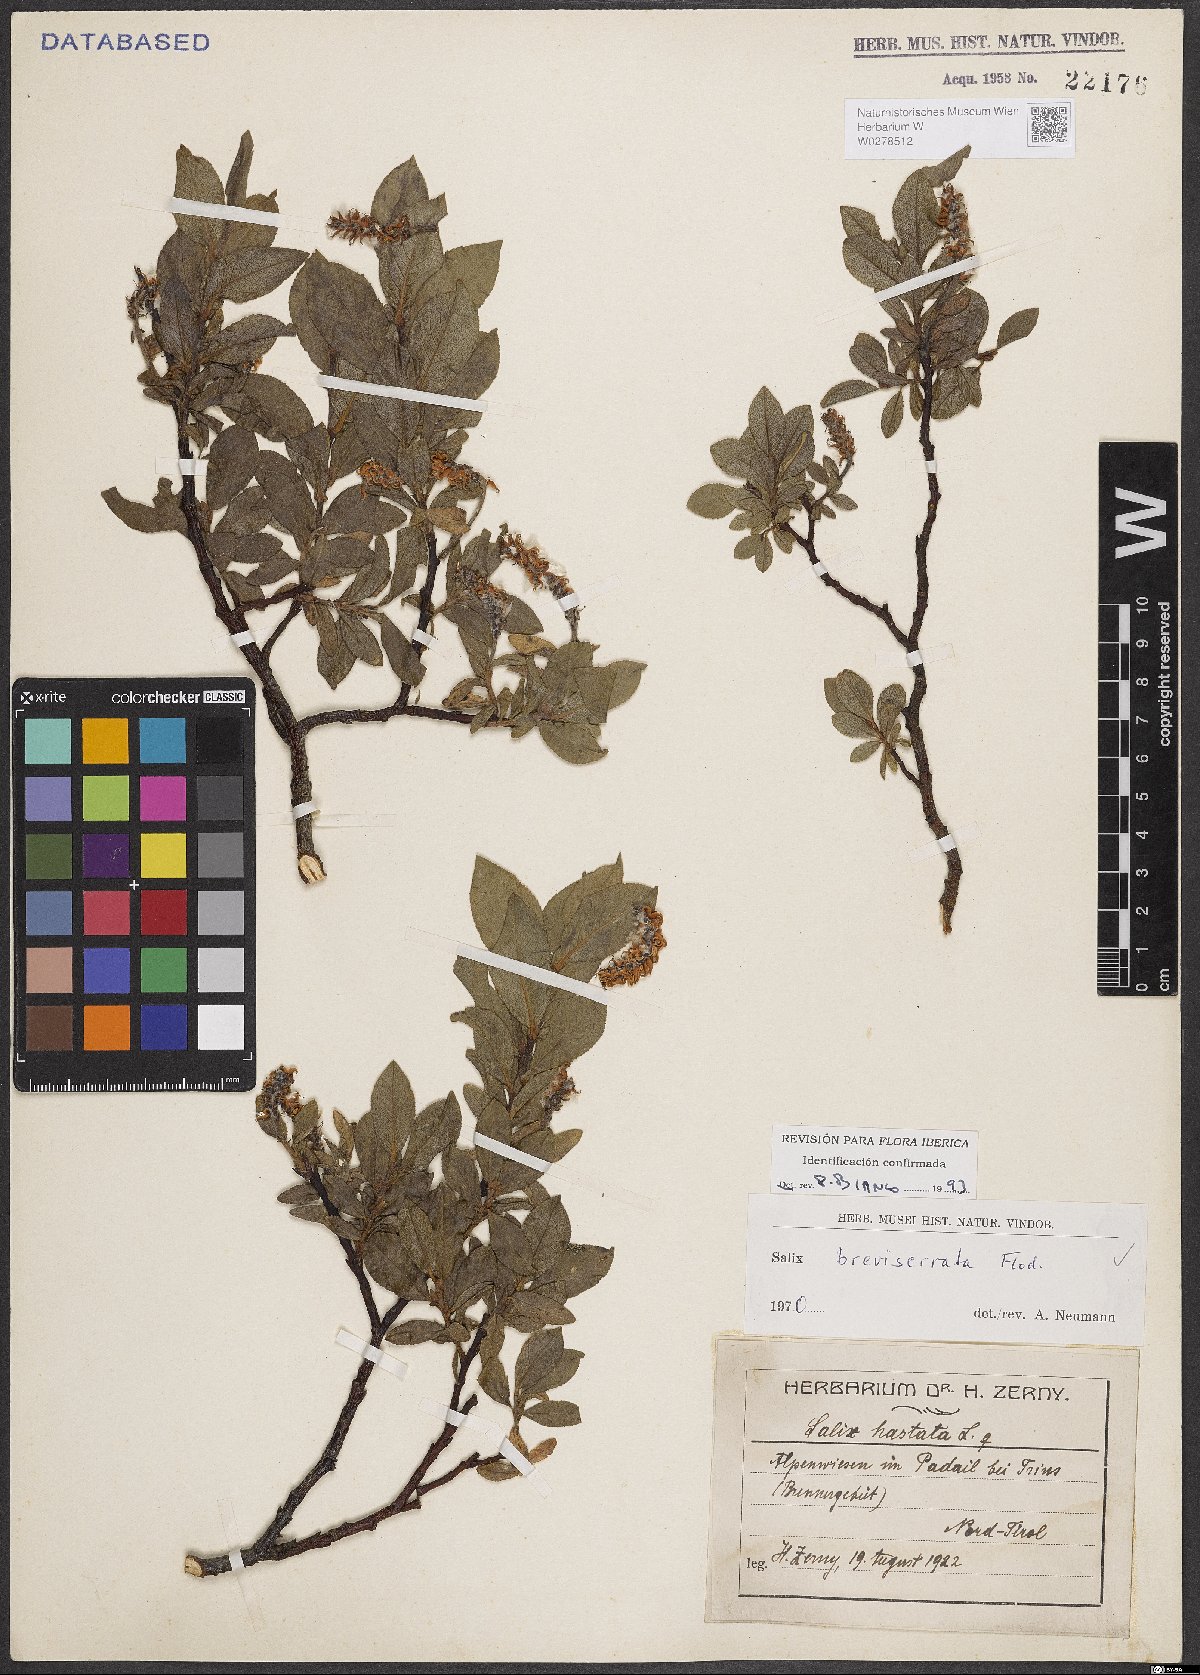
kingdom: Plantae
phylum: Tracheophyta
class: Magnoliopsida
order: Malpighiales
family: Salicaceae
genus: Salix
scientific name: Salix breviserrata
